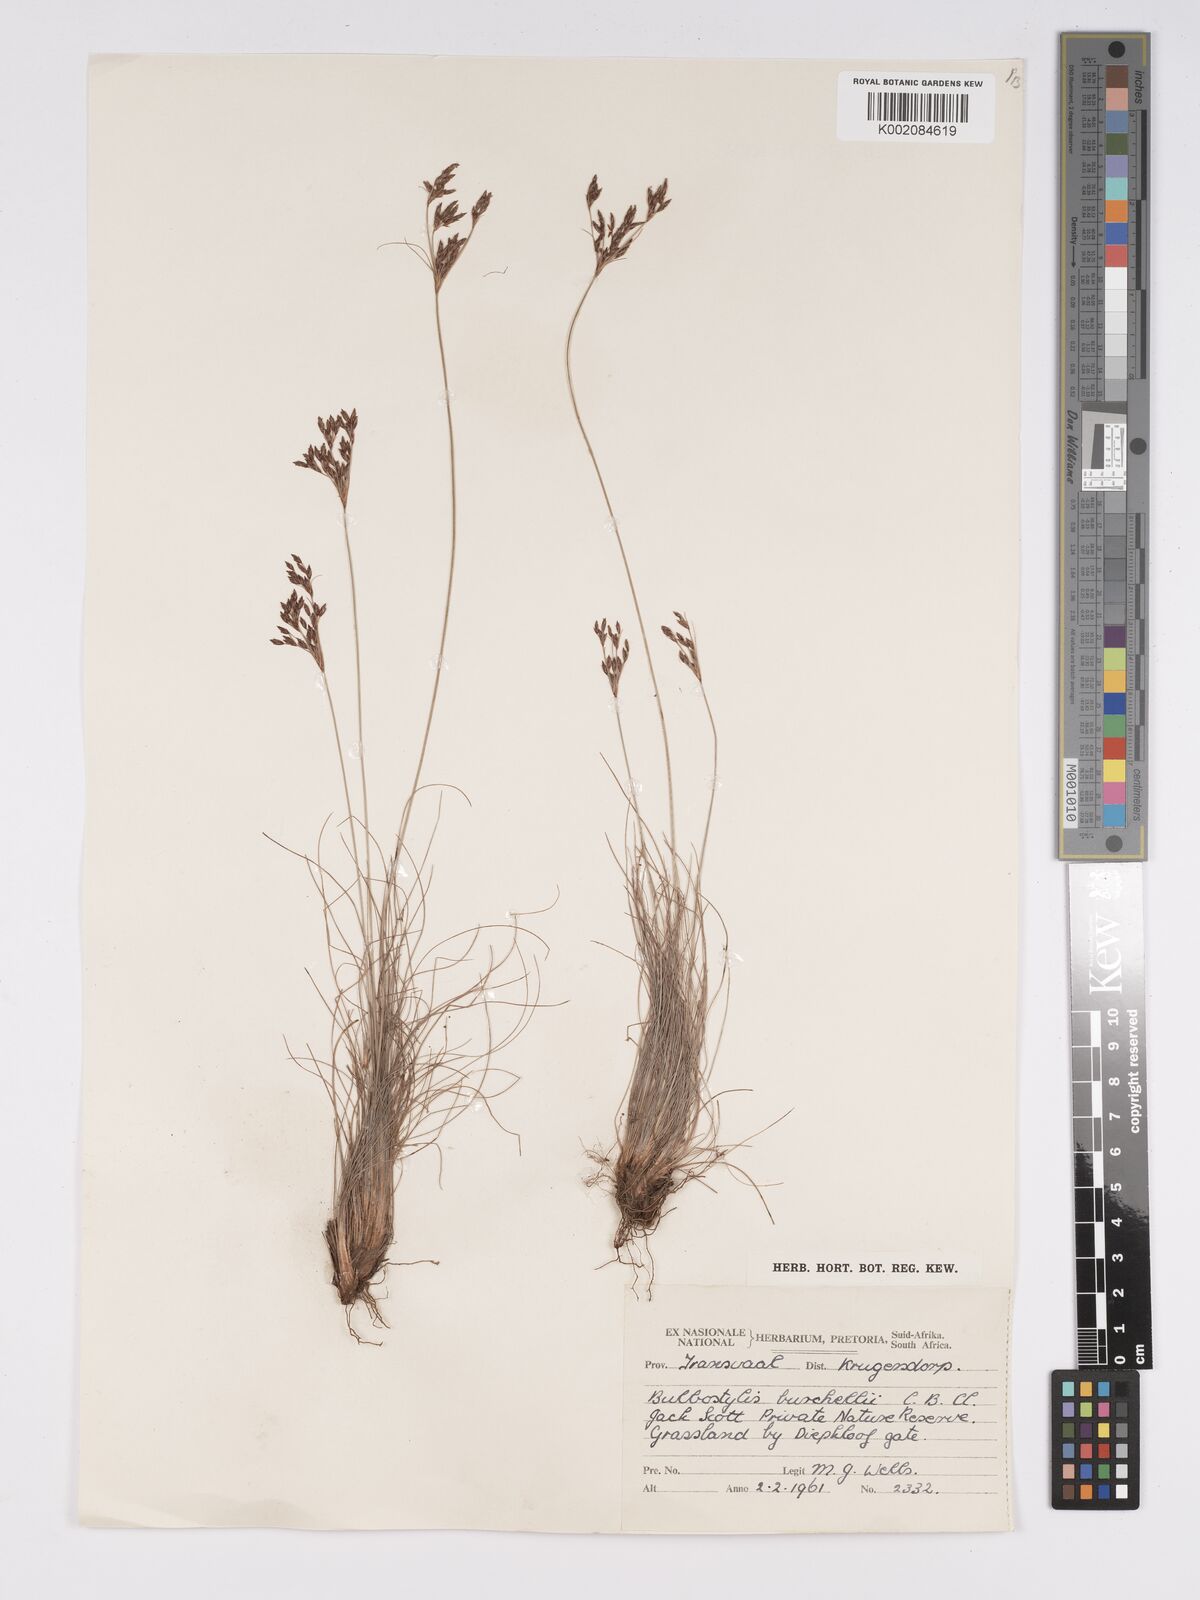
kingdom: Plantae
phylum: Tracheophyta
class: Liliopsida
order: Poales
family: Cyperaceae
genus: Bulbostylis
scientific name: Bulbostylis burchellii
